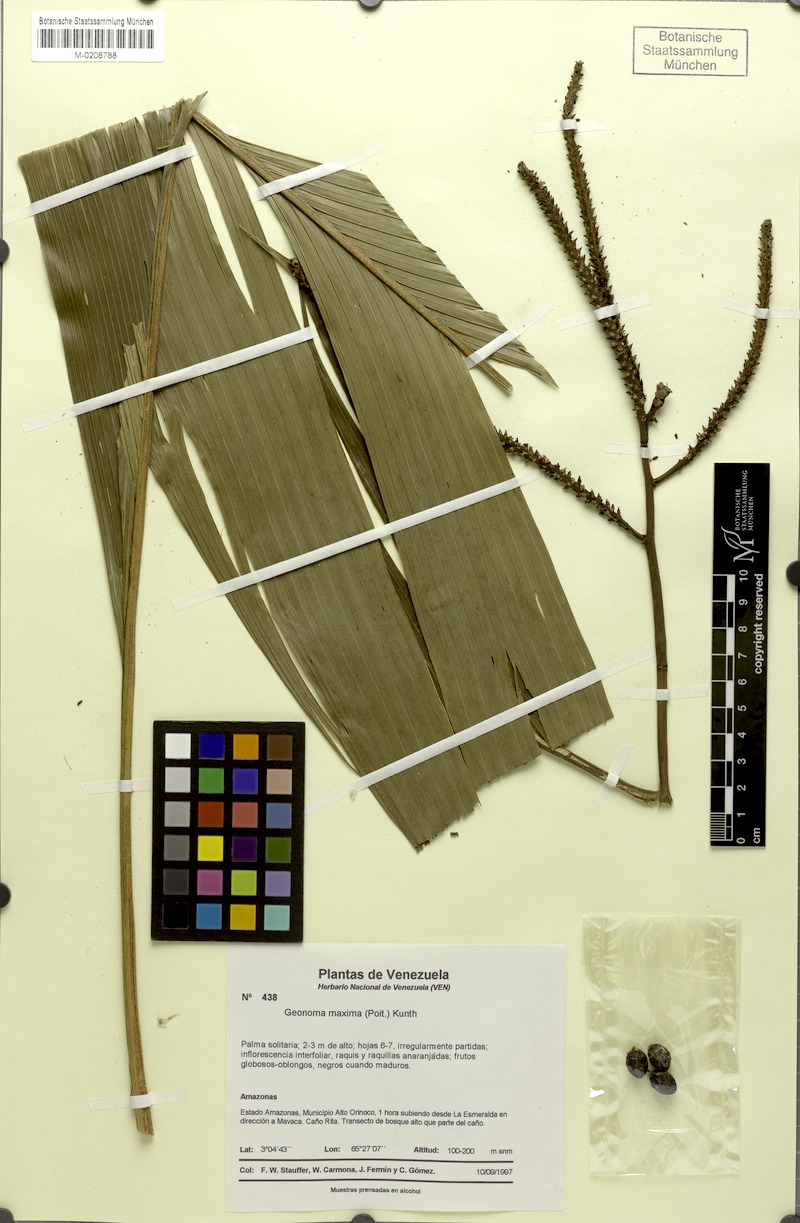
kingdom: Plantae
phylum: Tracheophyta
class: Liliopsida
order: Arecales
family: Arecaceae
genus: Geonoma
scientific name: Geonoma maxima
